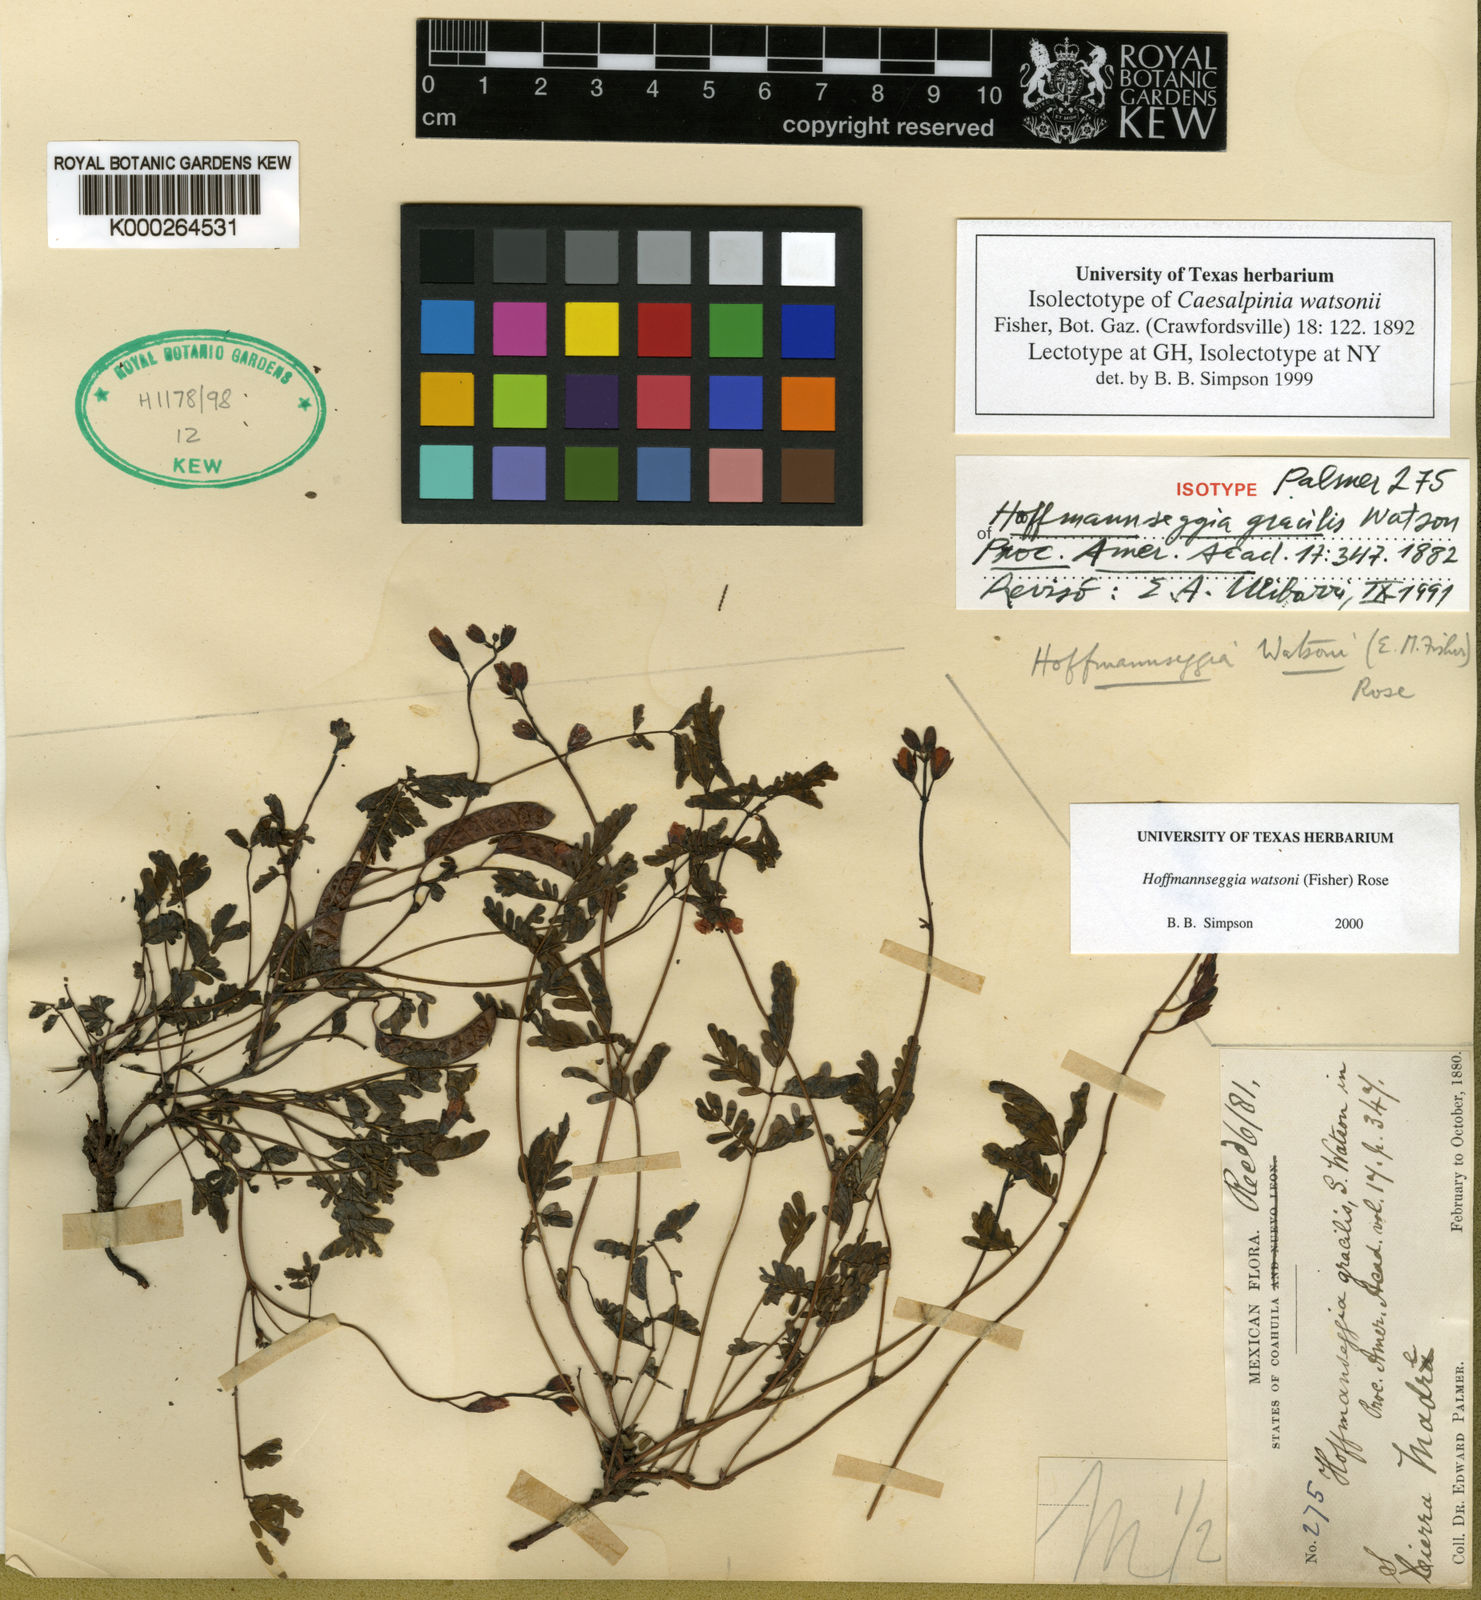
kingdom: Plantae
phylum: Tracheophyta
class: Magnoliopsida
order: Fabales
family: Fabaceae
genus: Hoffmannseggia
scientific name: Hoffmannseggia watsonii
